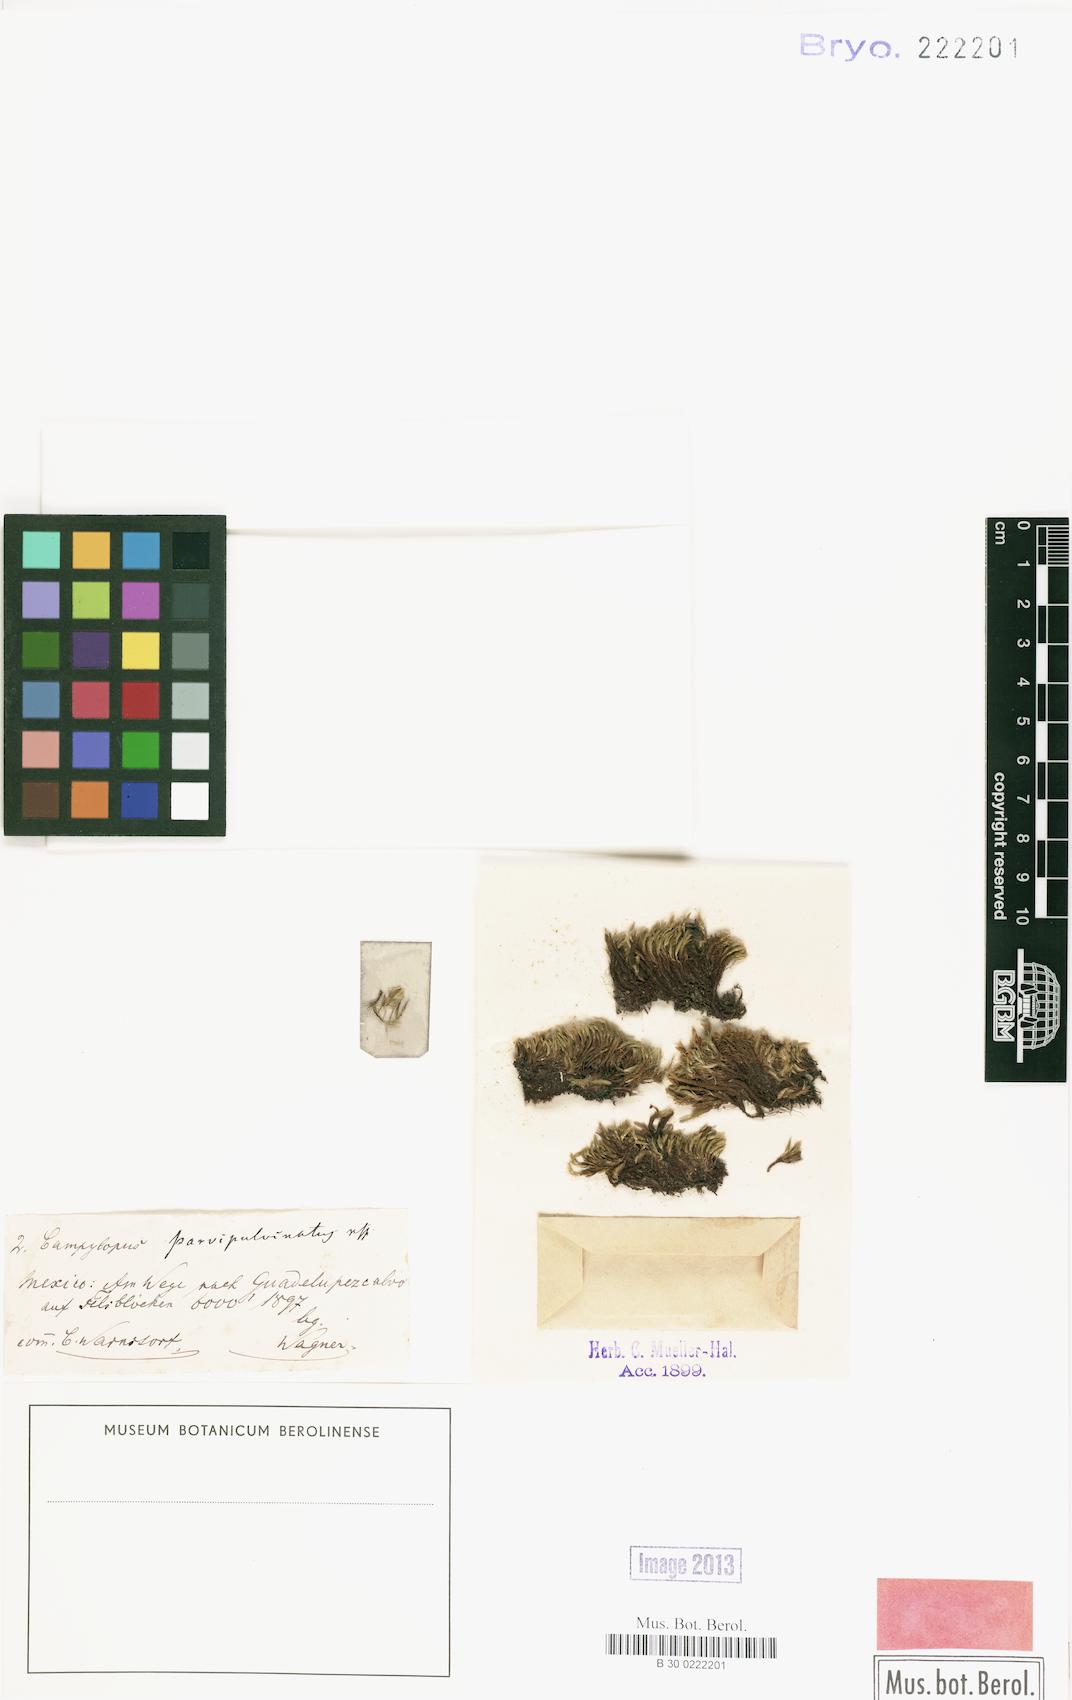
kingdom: Plantae
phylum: Bryophyta
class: Bryopsida
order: Dicranales
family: Dicranaceae
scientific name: Dicranaceae
